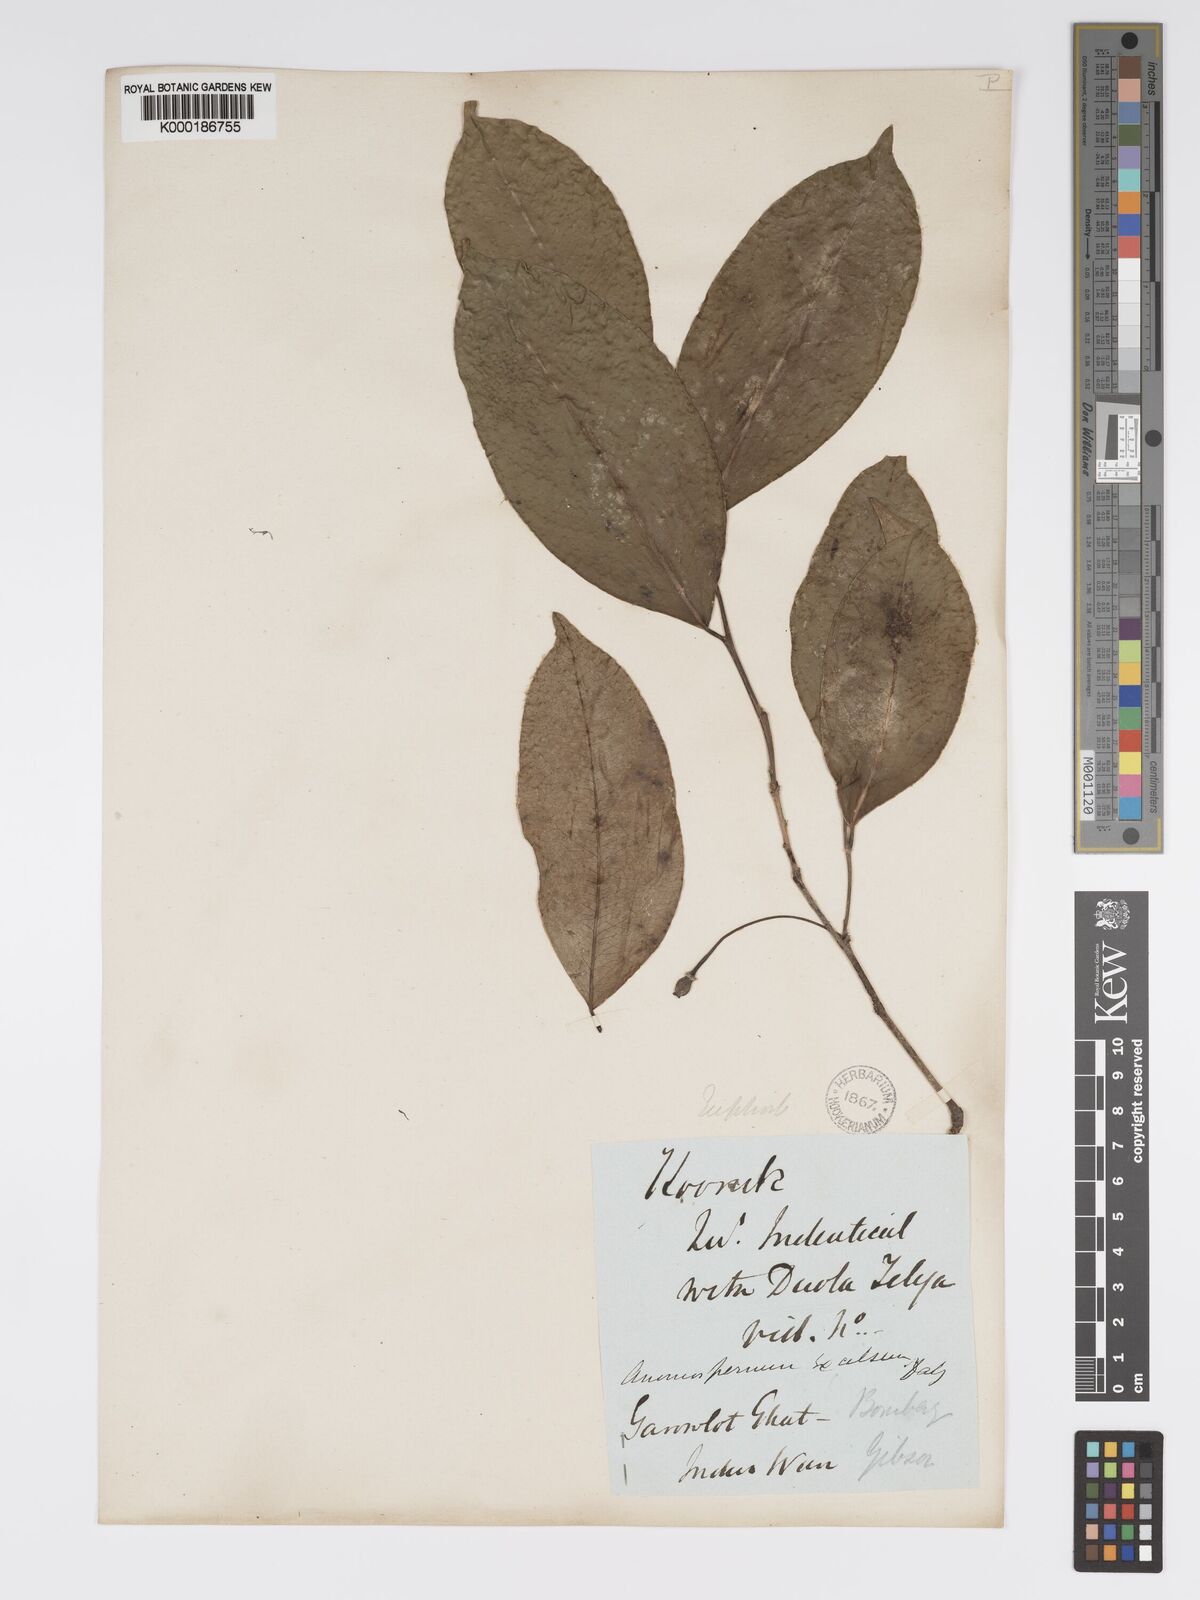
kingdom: Plantae
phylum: Tracheophyta
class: Magnoliopsida
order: Malpighiales
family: Phyllanthaceae
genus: Actephila
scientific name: Actephila excelsa
